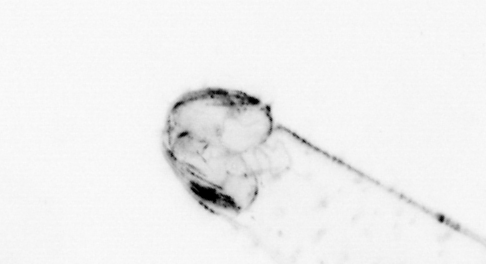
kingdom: Animalia
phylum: Chaetognatha
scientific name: Chaetognatha
